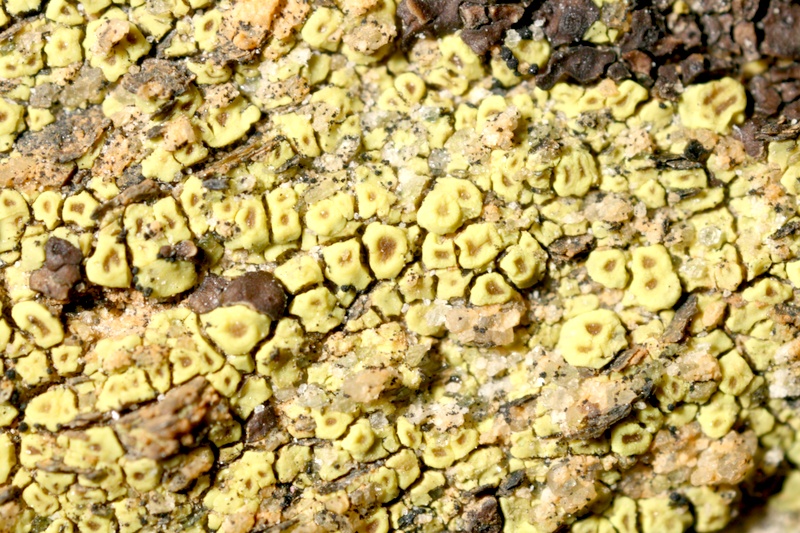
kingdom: Fungi
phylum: Ascomycota
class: Lecanoromycetes
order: Acarosporales
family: Acarosporaceae
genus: Acarospora
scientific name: Acarospora
